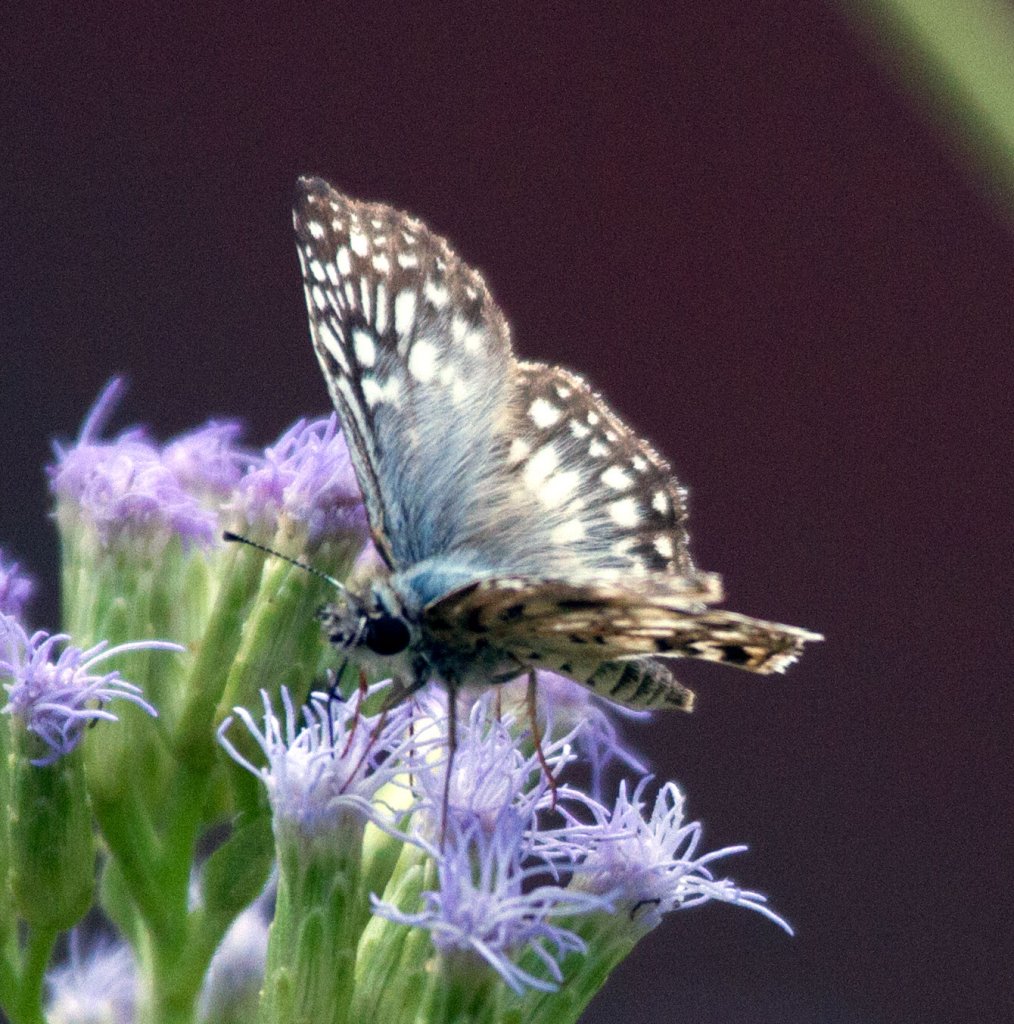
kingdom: Animalia
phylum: Arthropoda
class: Insecta
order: Lepidoptera
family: Hesperiidae
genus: Pyrgus
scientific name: Pyrgus oileus
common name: Tropical Checkered-Skipper
